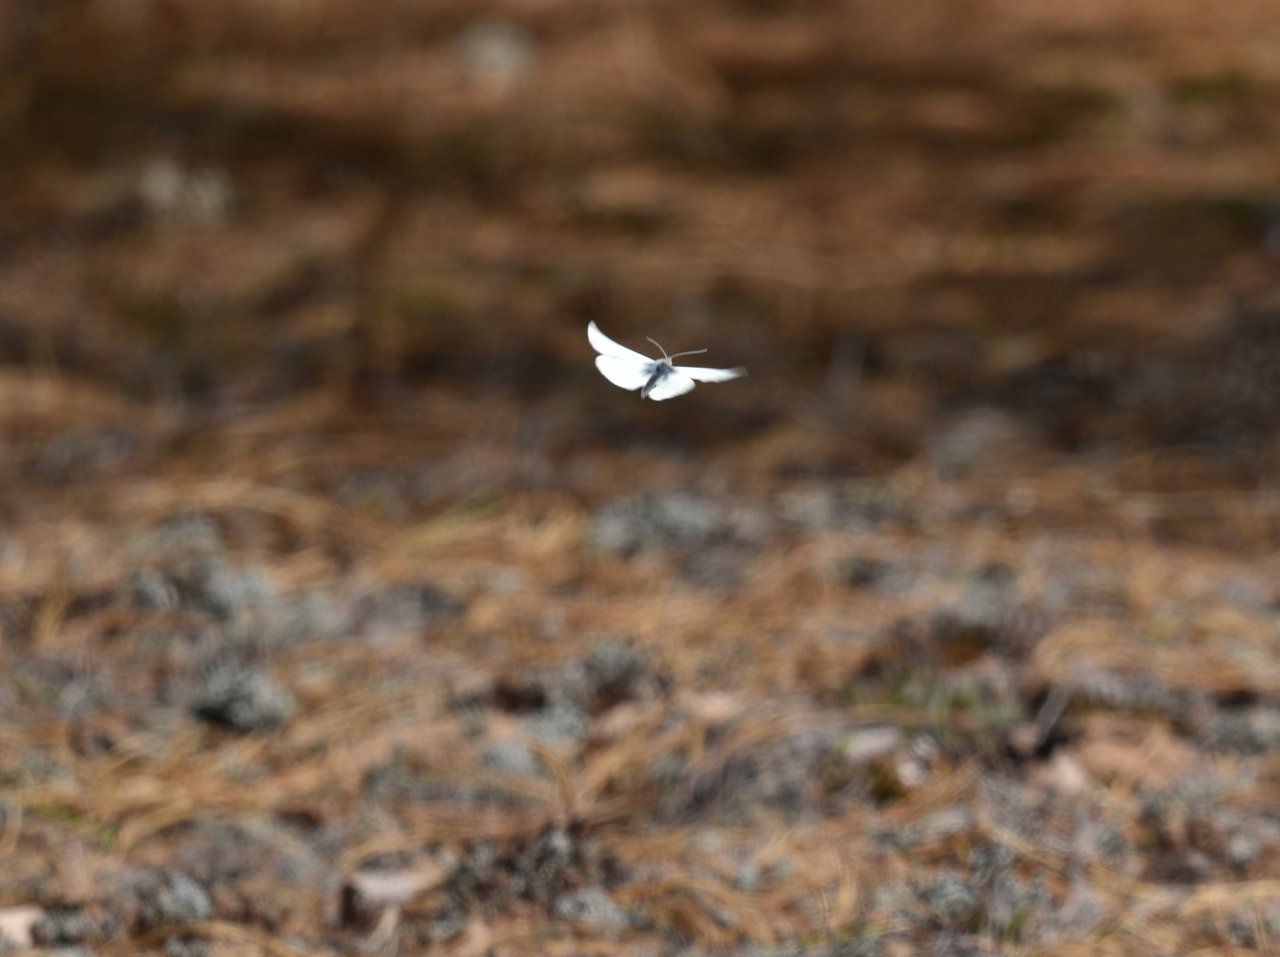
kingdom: Animalia
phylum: Arthropoda
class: Insecta
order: Lepidoptera
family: Pieridae
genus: Pieris
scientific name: Pieris rapae
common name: Cabbage White
